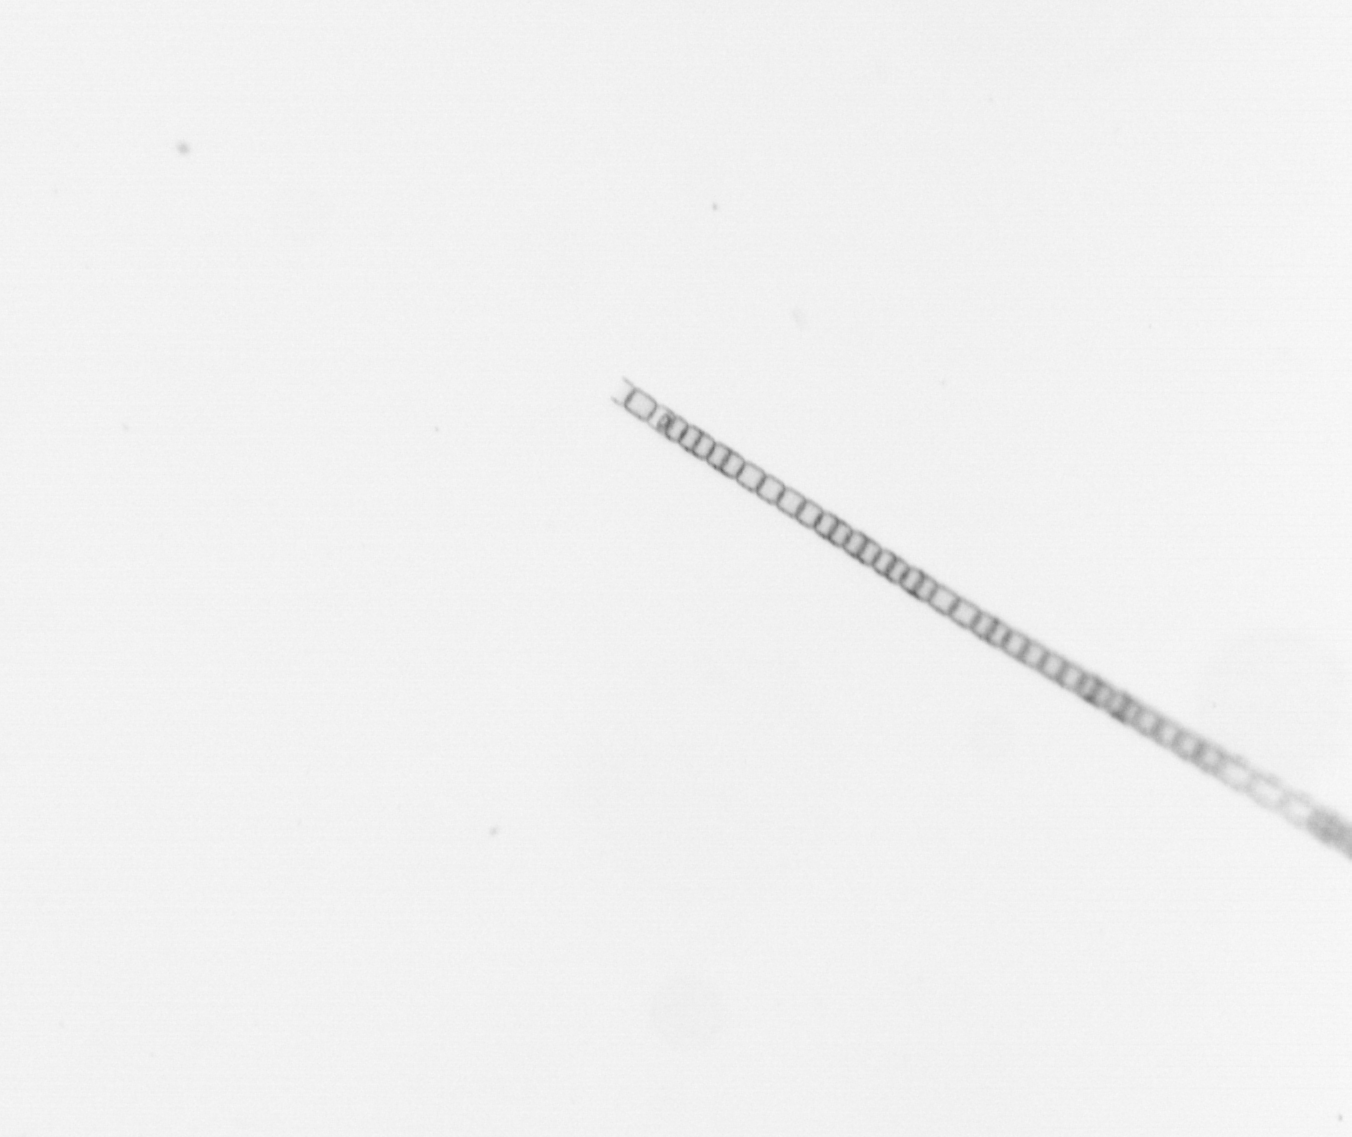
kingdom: Chromista
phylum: Ochrophyta
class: Bacillariophyceae
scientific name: Bacillariophyceae
